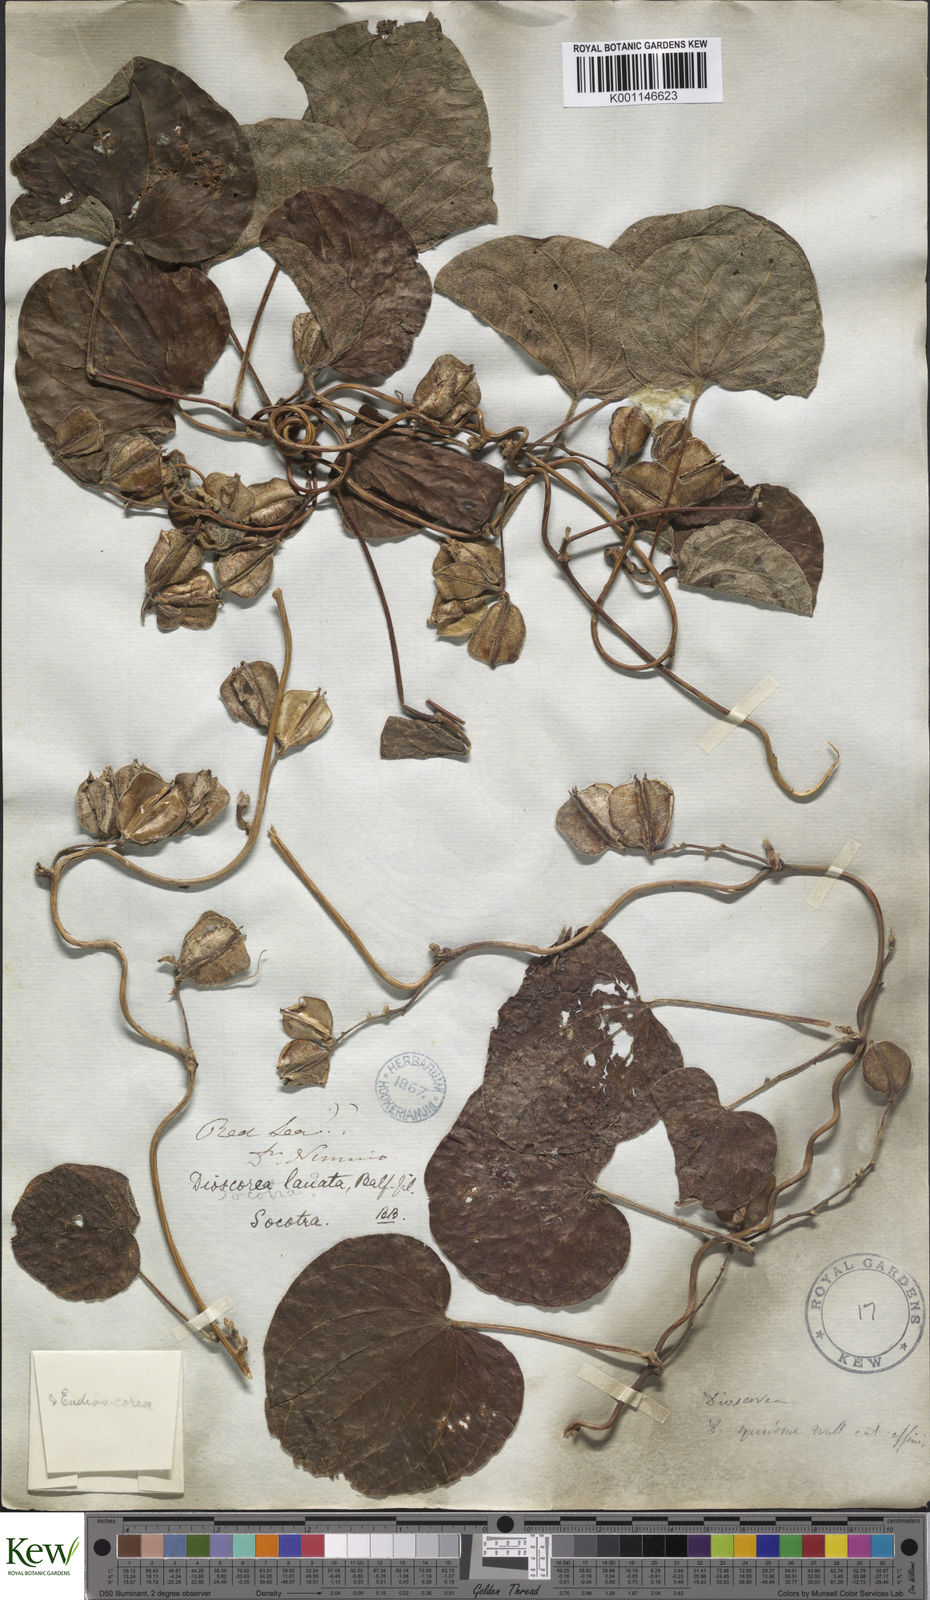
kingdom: Plantae
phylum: Tracheophyta
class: Liliopsida
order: Dioscoreales
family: Dioscoreaceae
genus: Dioscorea
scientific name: Dioscorea
